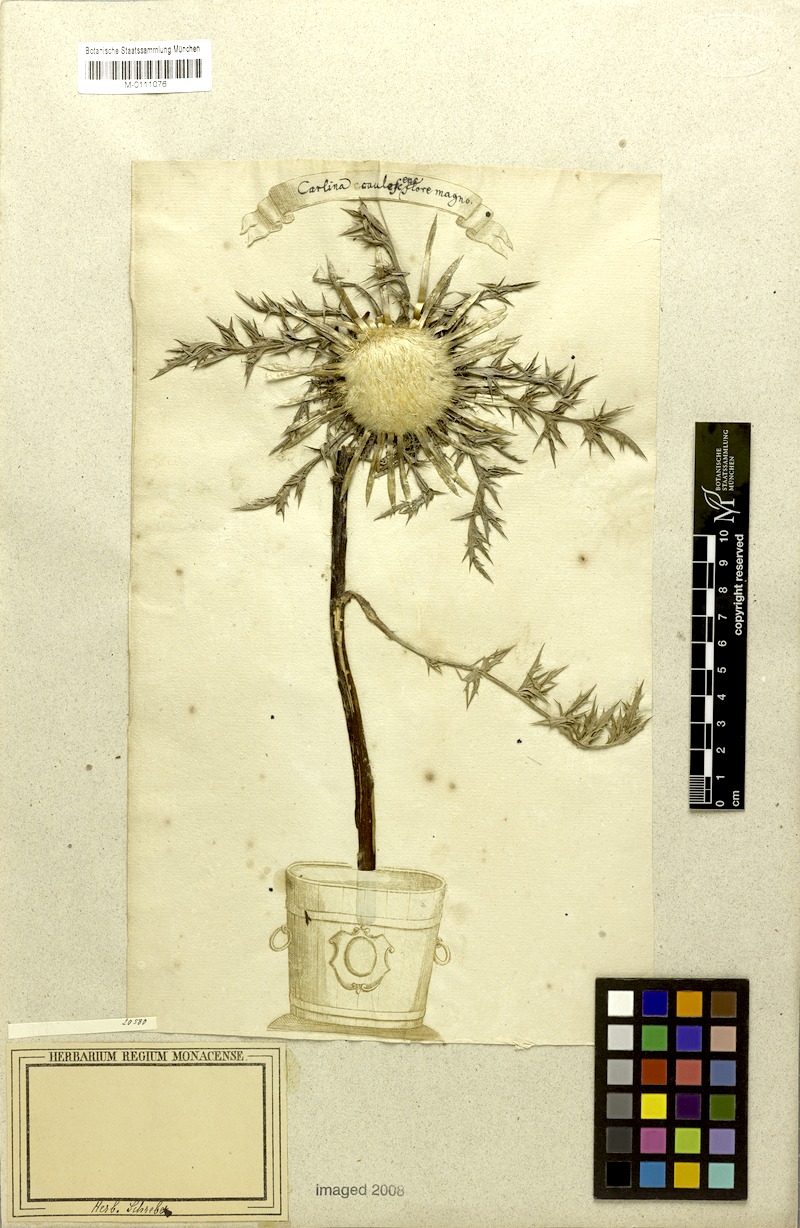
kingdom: Plantae
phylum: Tracheophyta
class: Magnoliopsida
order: Asterales
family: Asteraceae
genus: Carlina
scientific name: Carlina acaulis
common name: Stemless carline thistle
